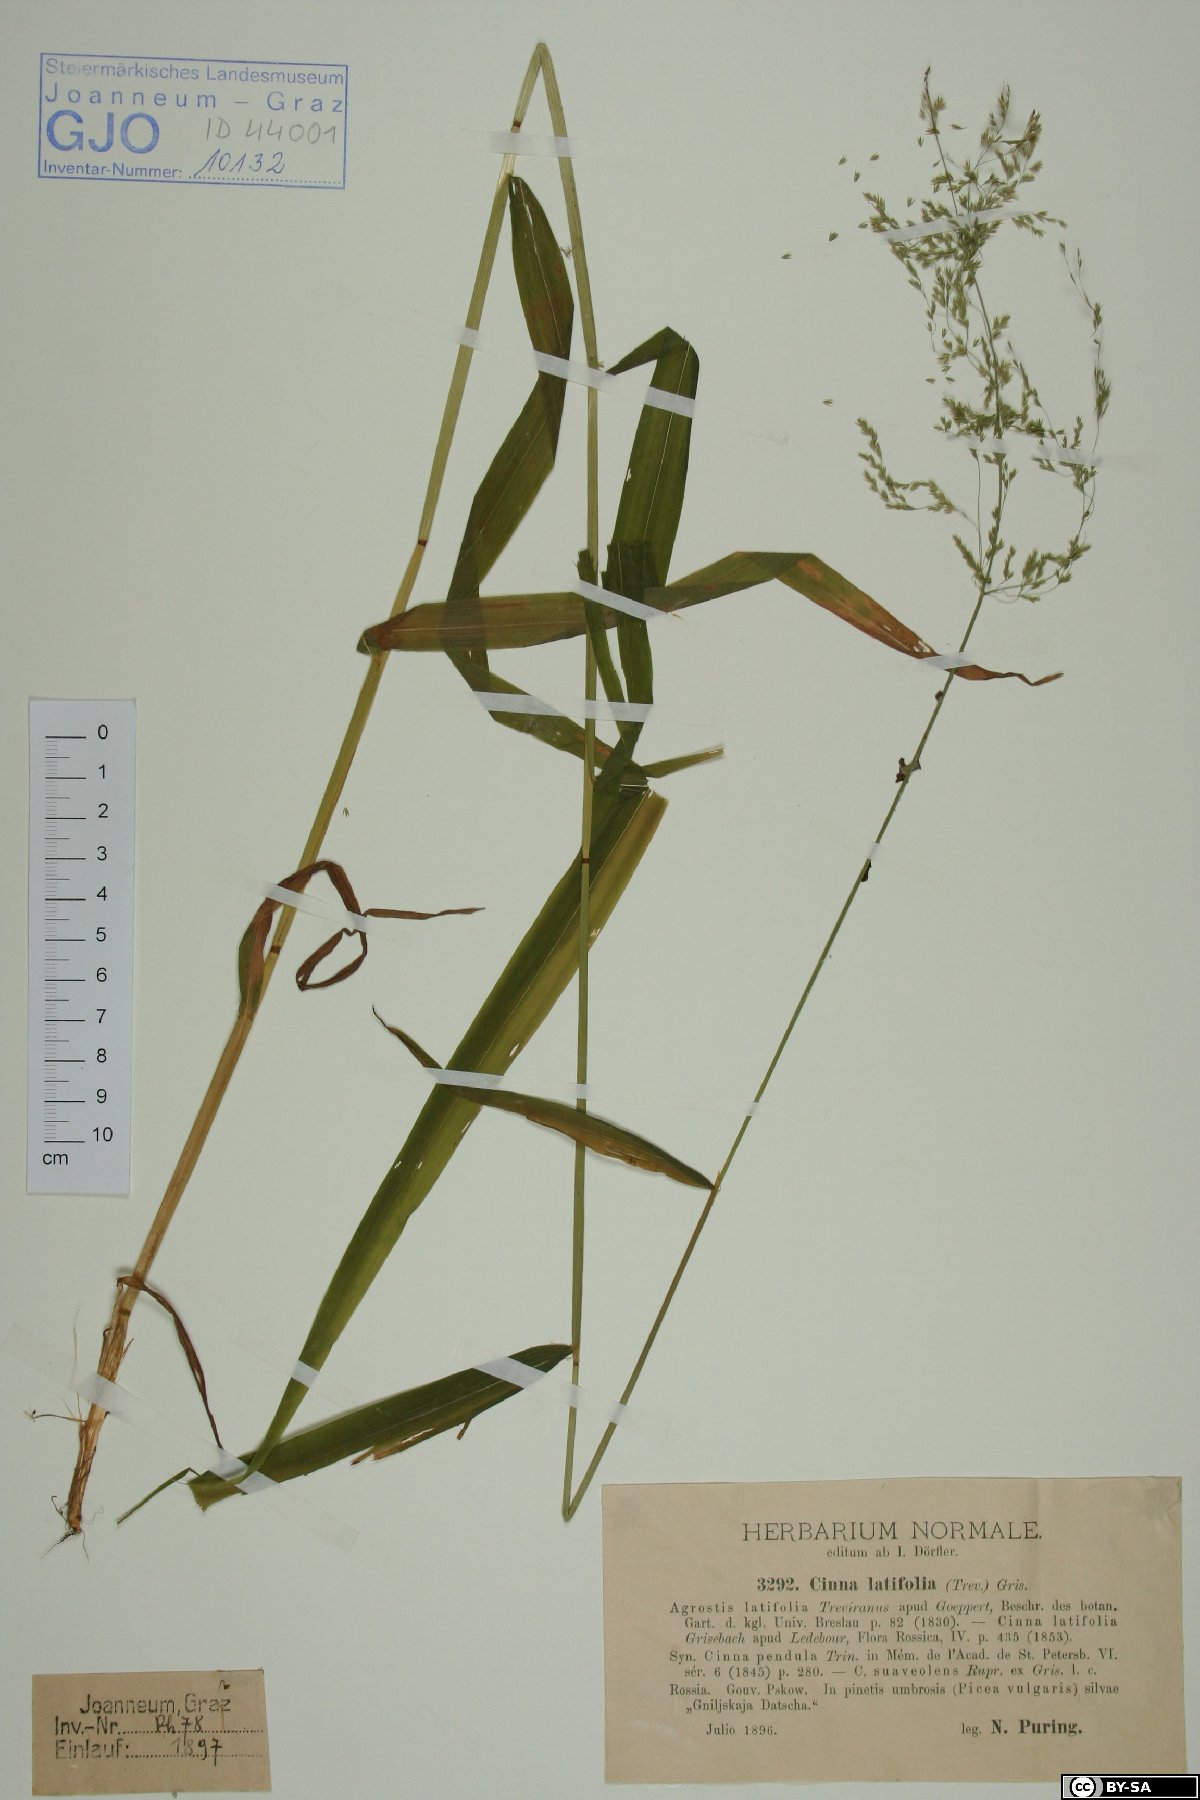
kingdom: Plantae
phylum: Tracheophyta
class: Liliopsida
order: Poales
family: Poaceae
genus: Cinna
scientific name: Cinna latifolia
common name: Drooping woodreed
